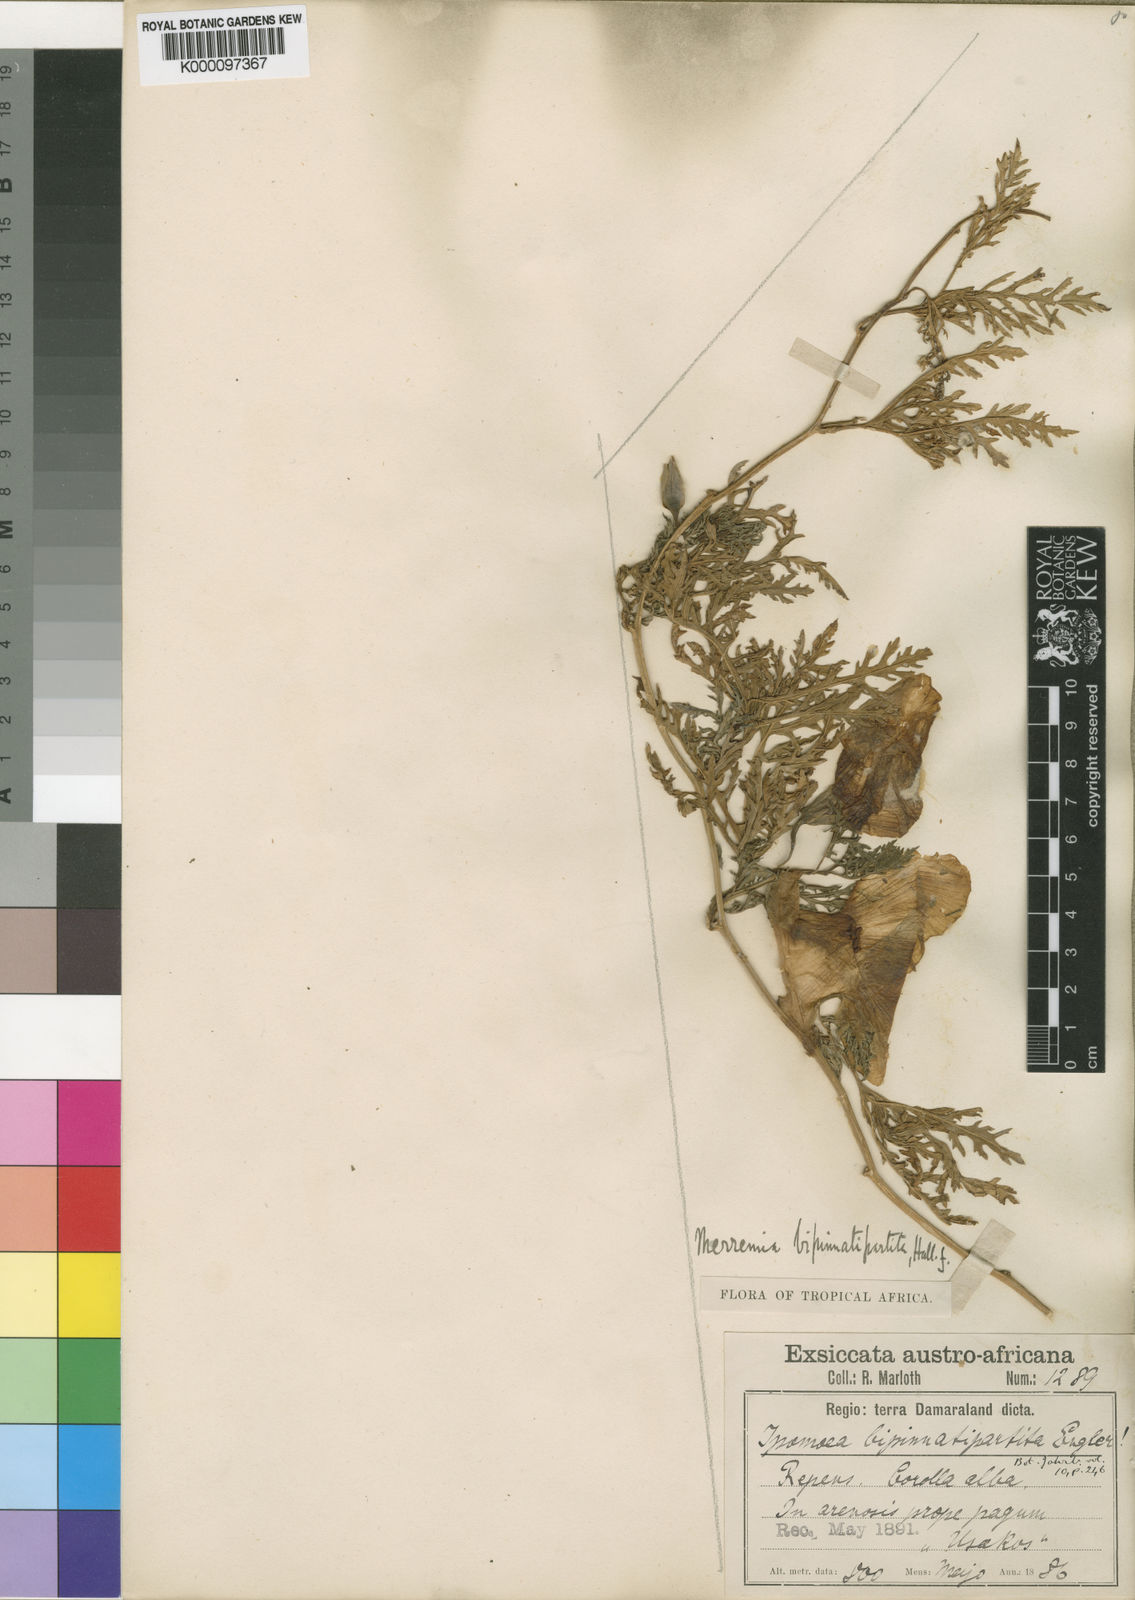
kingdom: Plantae
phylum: Tracheophyta
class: Magnoliopsida
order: Solanales
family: Convolvulaceae
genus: Distimake
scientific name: Distimake
